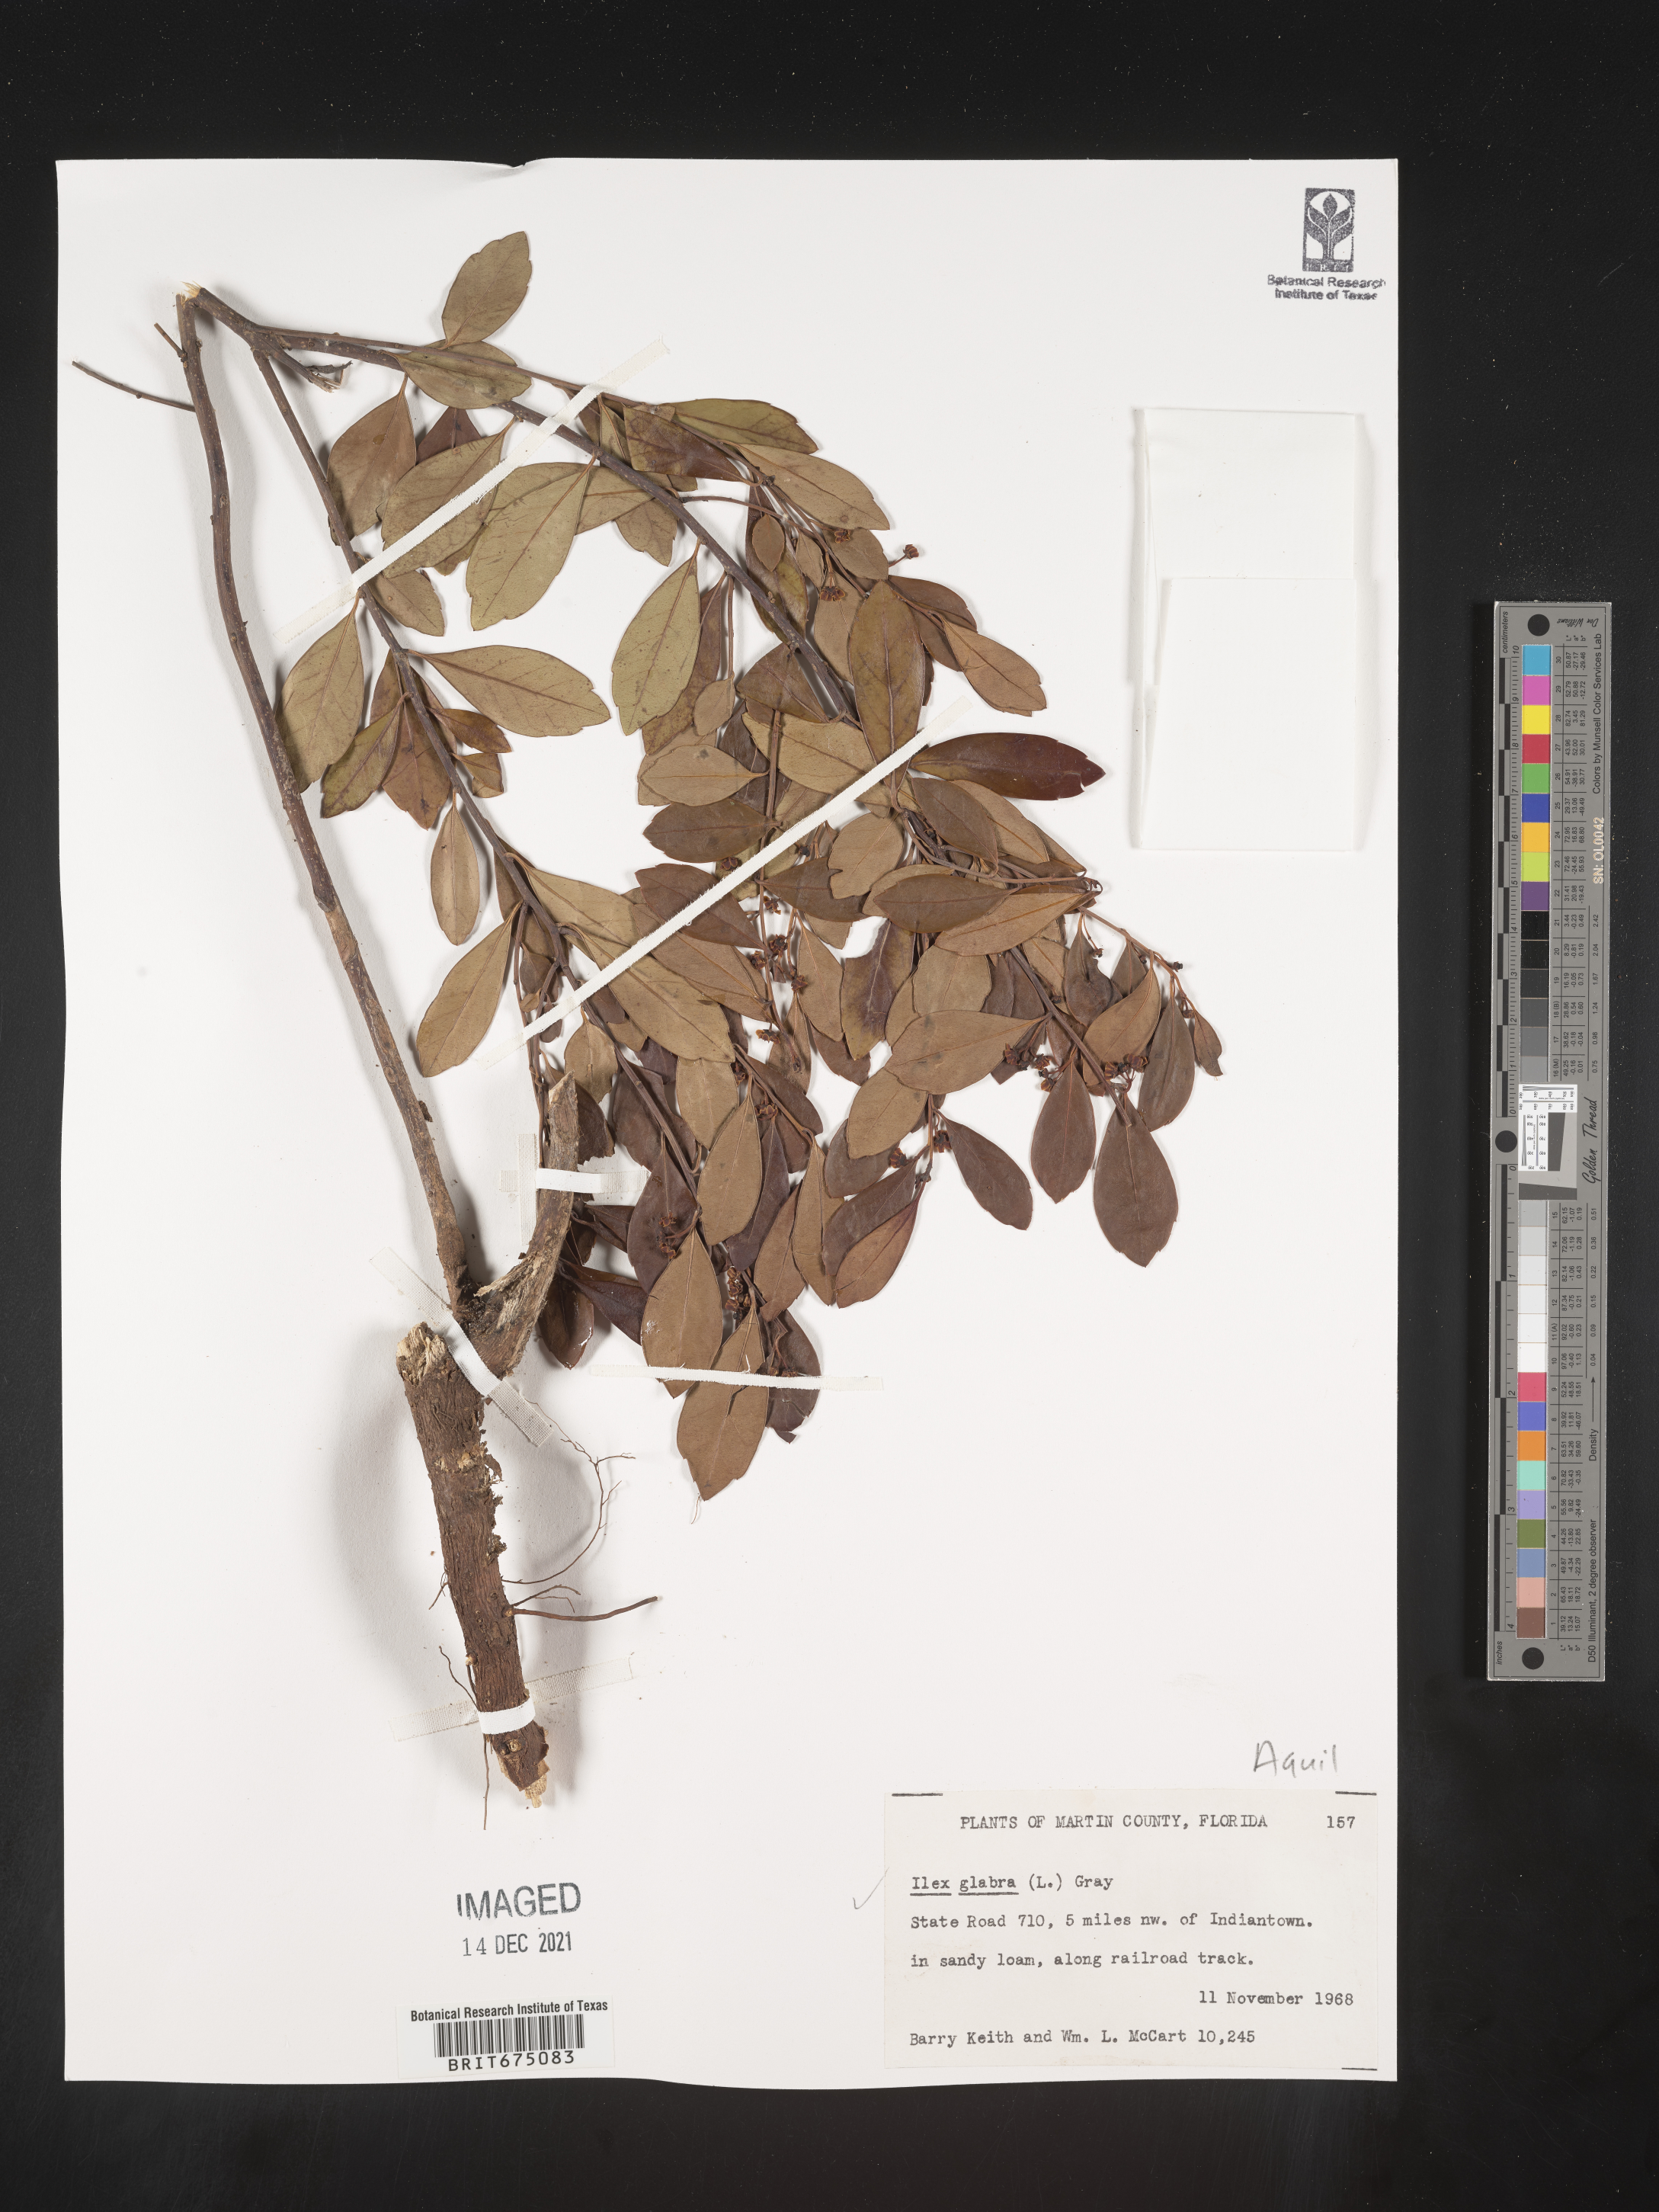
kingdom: Plantae
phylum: Tracheophyta
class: Magnoliopsida
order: Aquifoliales
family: Aquifoliaceae
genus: Ilex
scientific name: Ilex glabra
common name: Bitter gallberry
